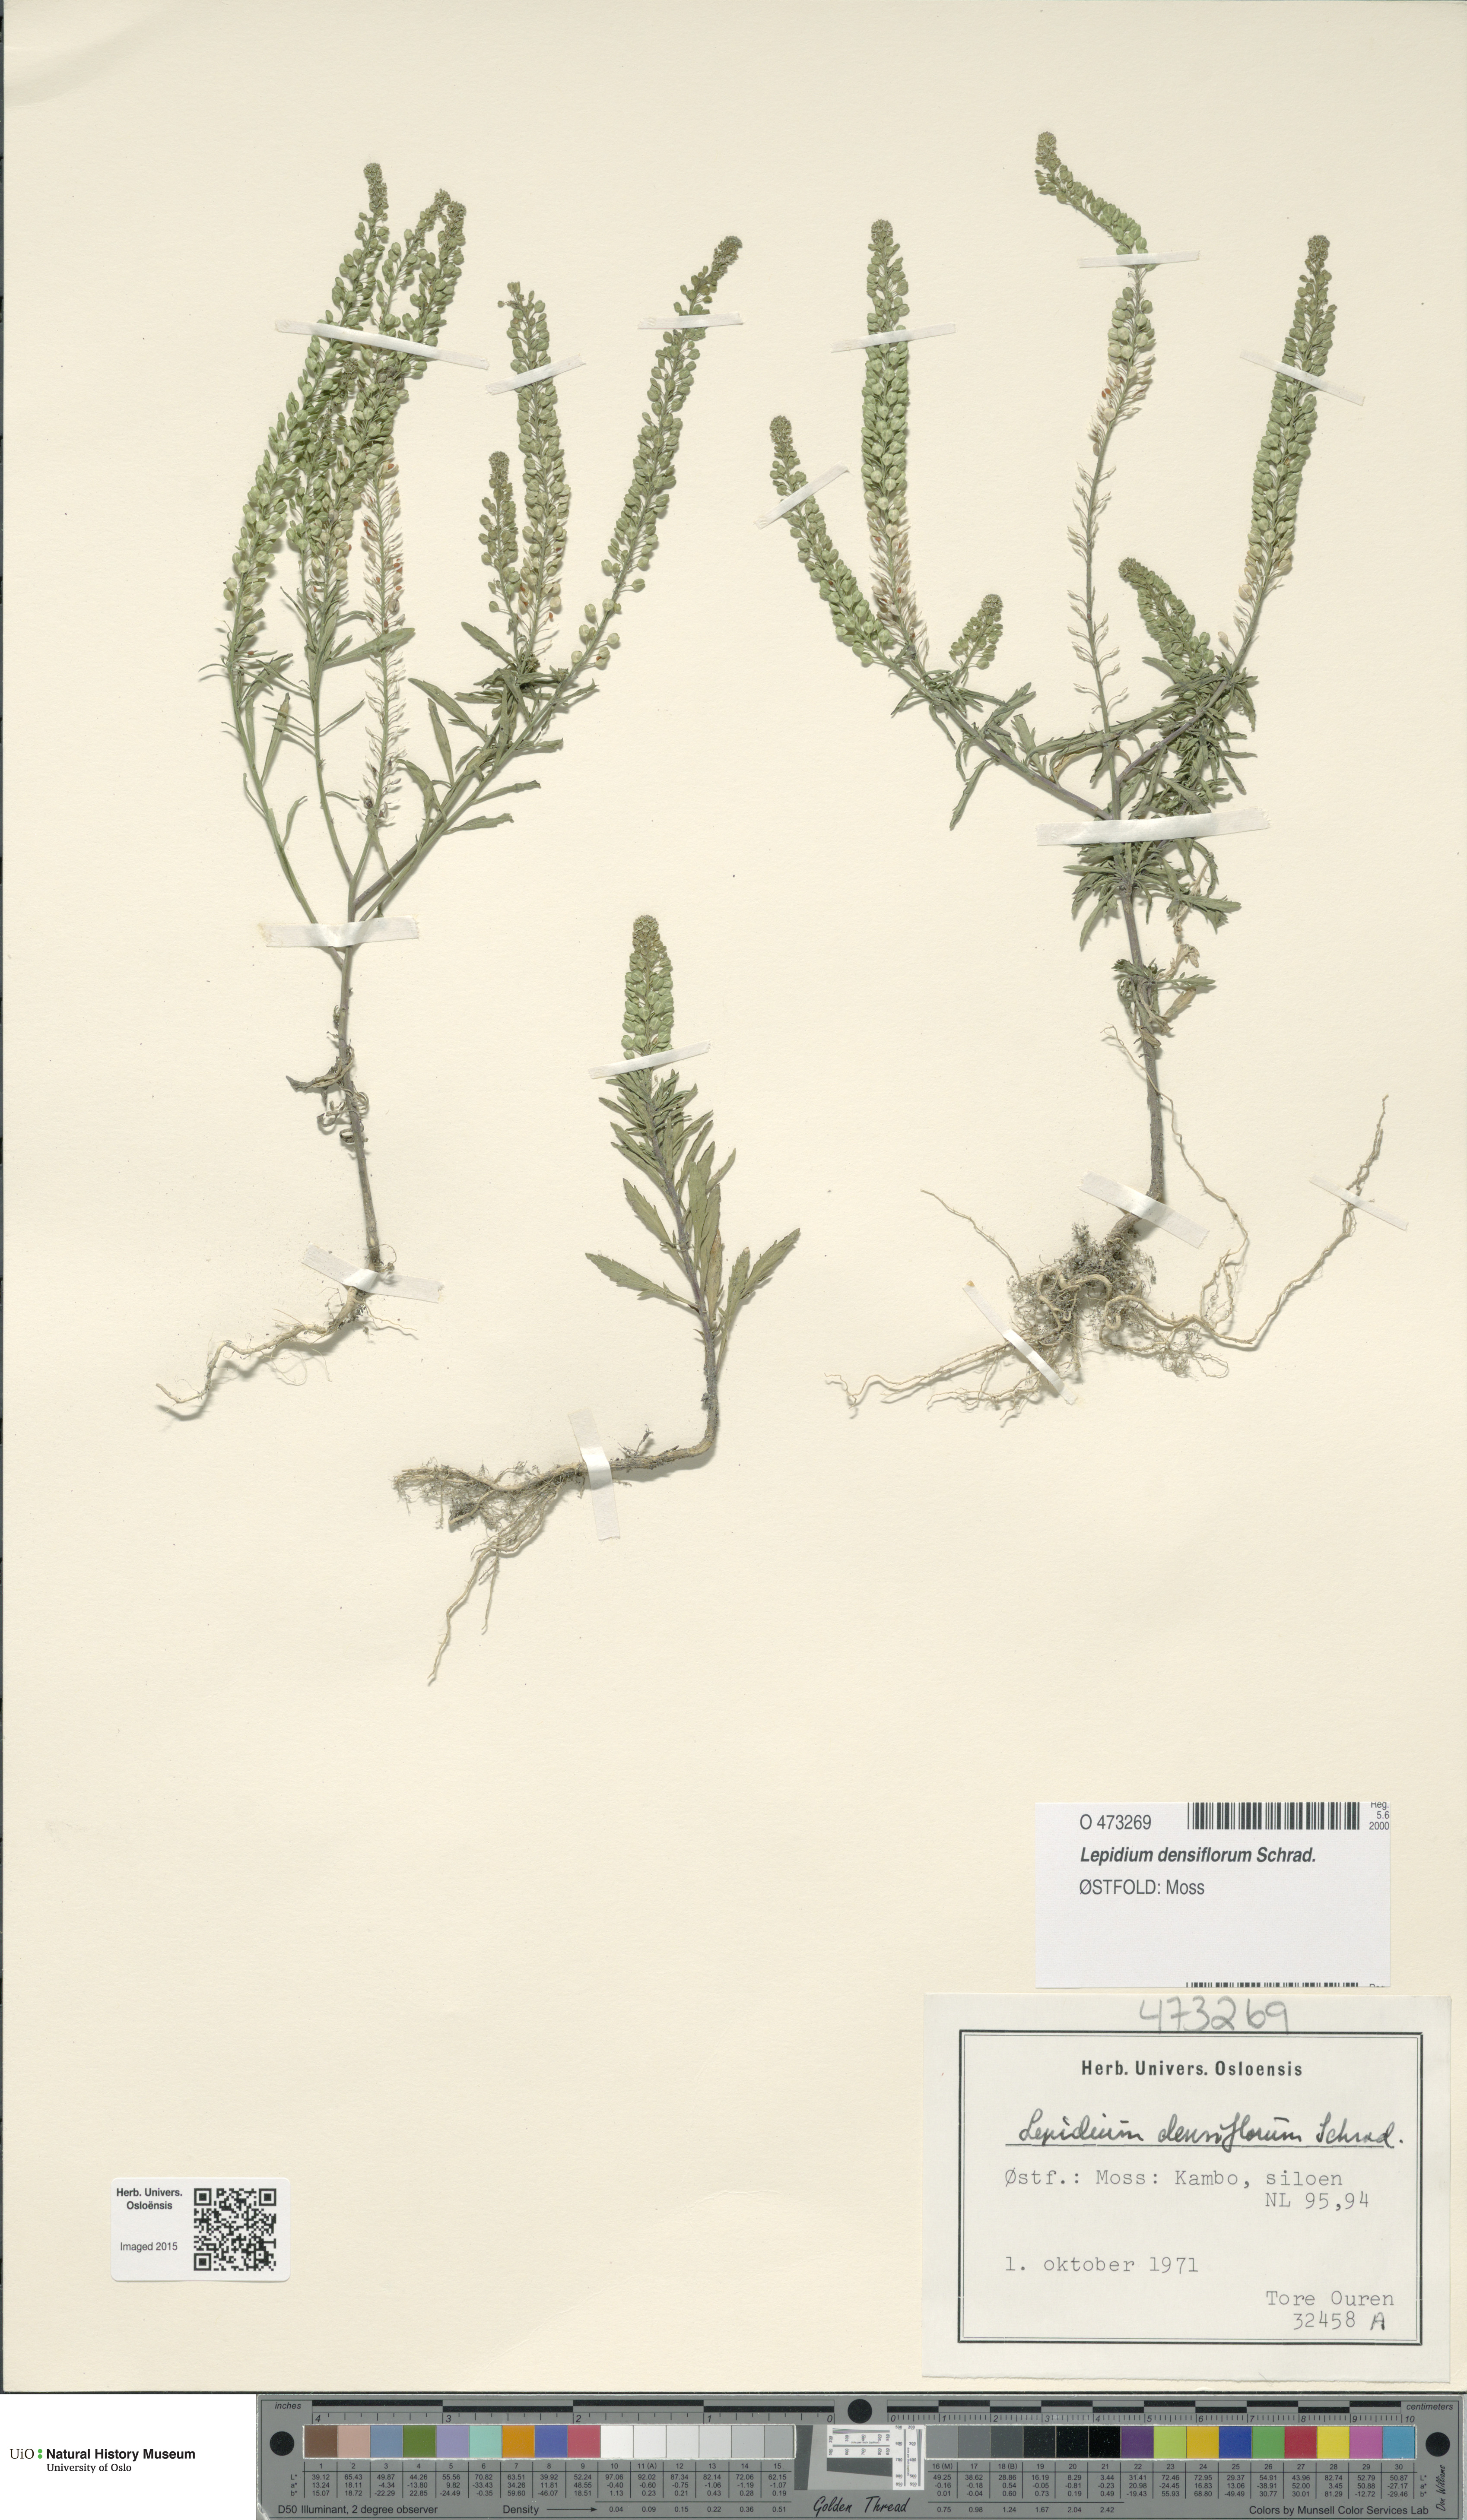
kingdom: Plantae
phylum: Tracheophyta
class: Magnoliopsida
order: Brassicales
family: Brassicaceae
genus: Lepidium
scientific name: Lepidium densiflorum
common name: Miner's pepperwort
